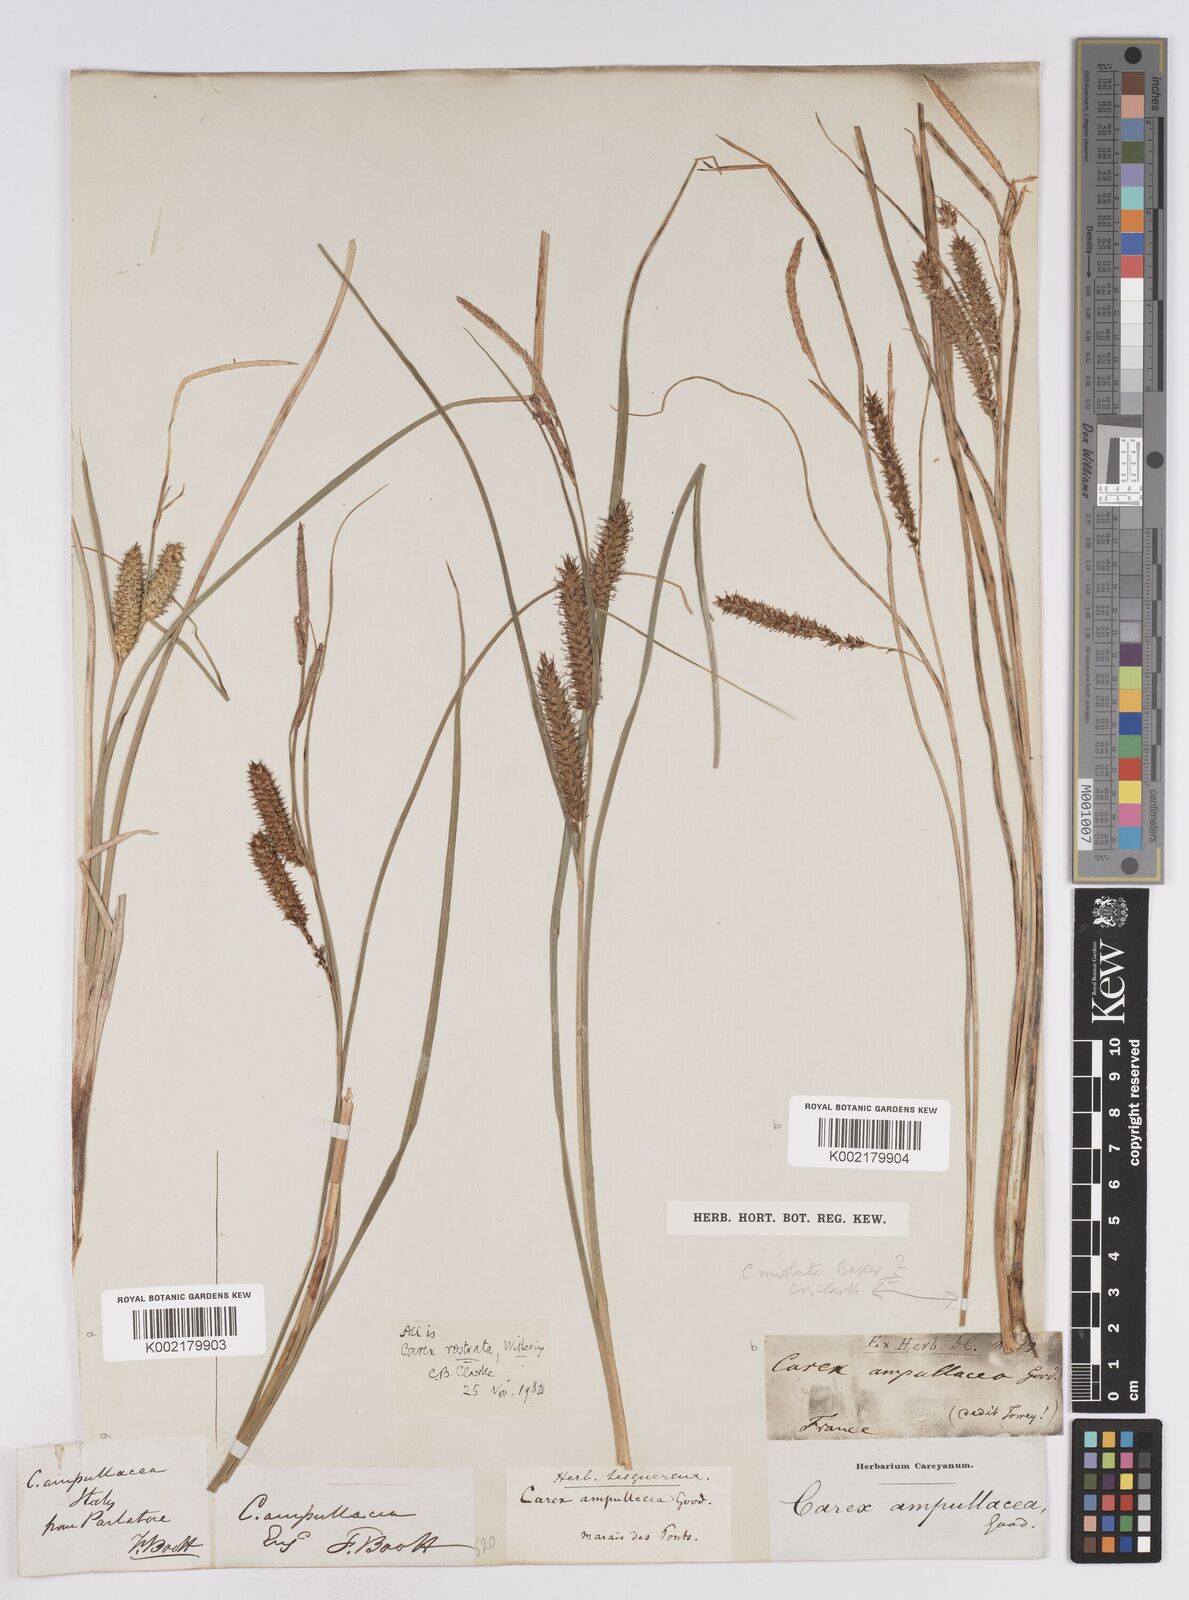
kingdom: Plantae
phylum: Tracheophyta
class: Liliopsida
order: Poales
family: Cyperaceae
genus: Carex
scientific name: Carex rostrata
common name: Bottle sedge
